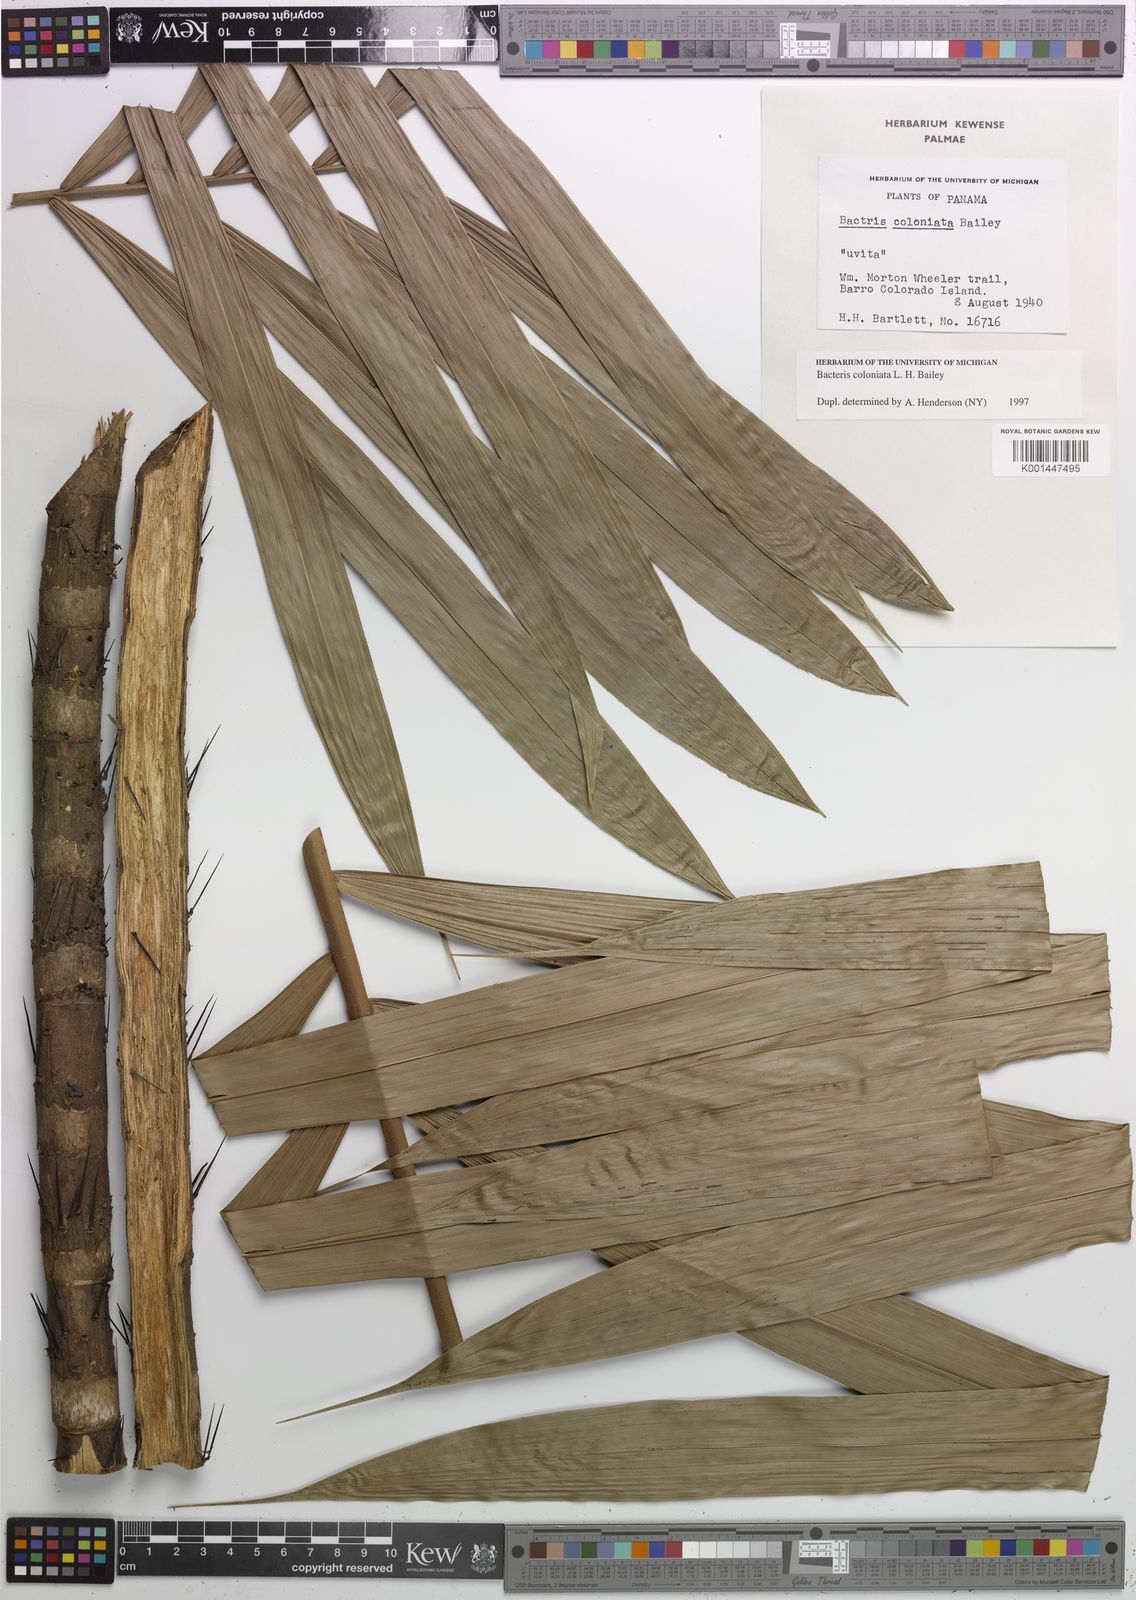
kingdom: Plantae
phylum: Tracheophyta
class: Liliopsida
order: Arecales
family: Arecaceae
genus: Bactris
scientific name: Bactris coloniata
